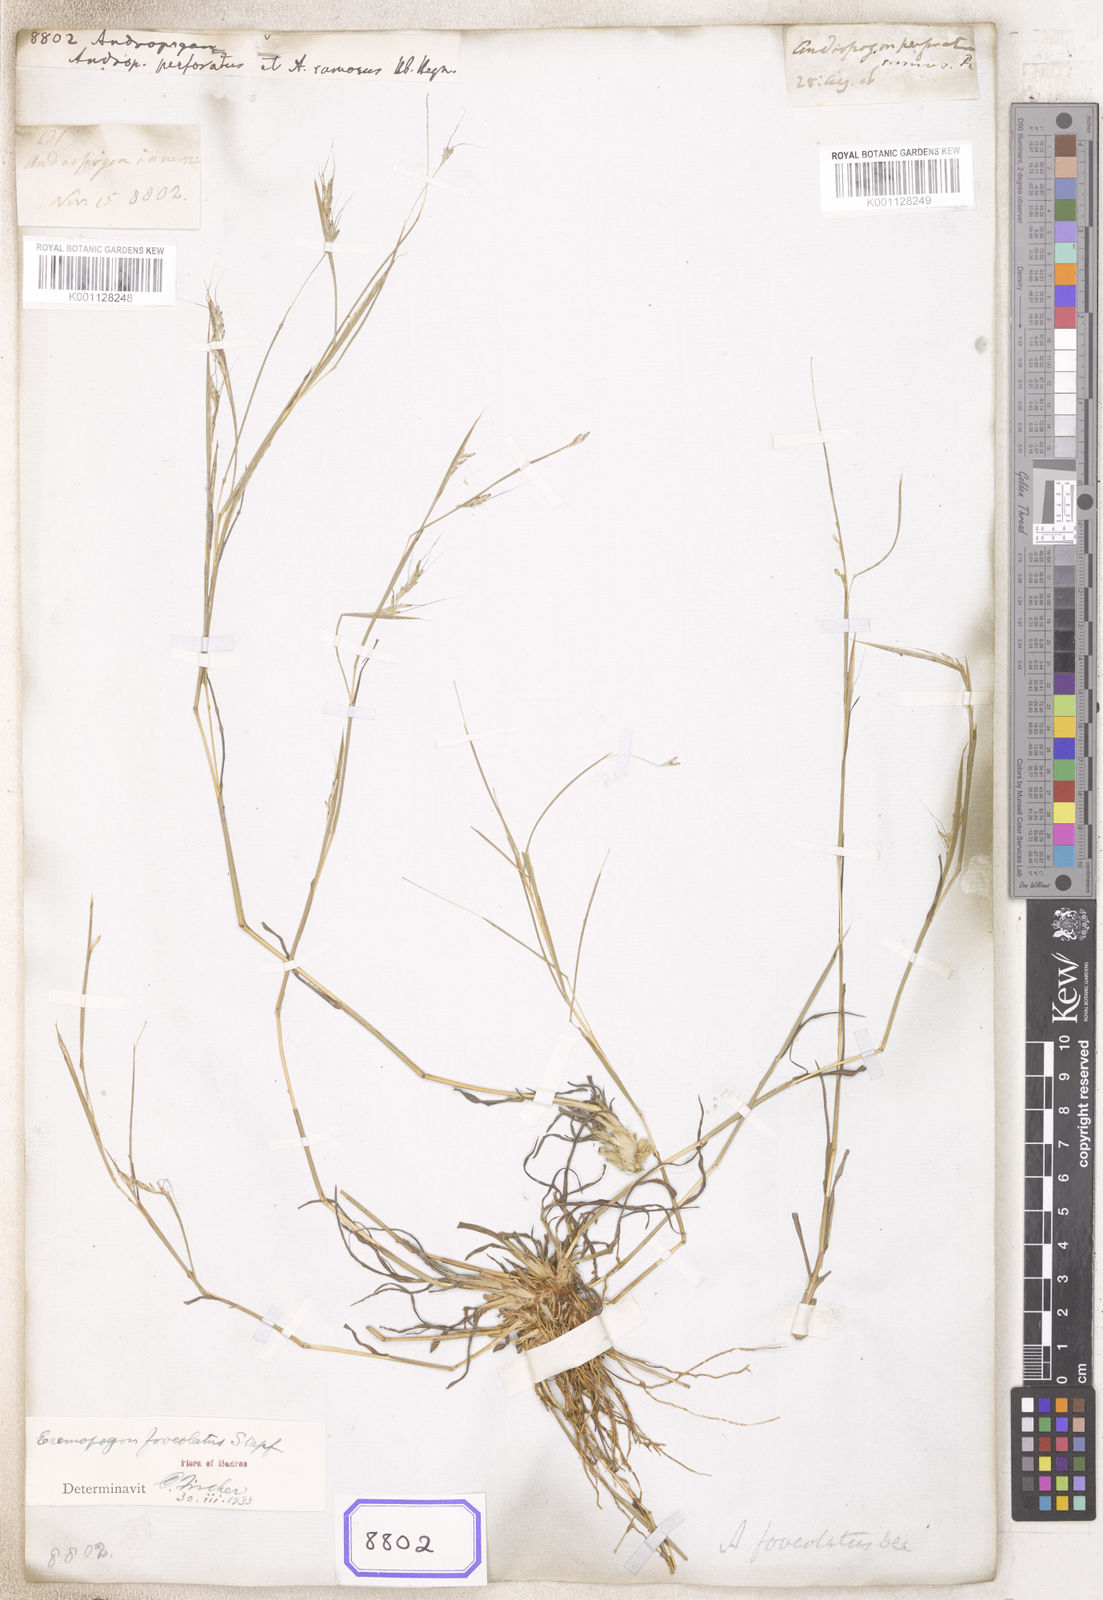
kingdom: Plantae
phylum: Tracheophyta
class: Liliopsida
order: Poales
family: Poaceae
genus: Andropogon
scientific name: Andropogon
